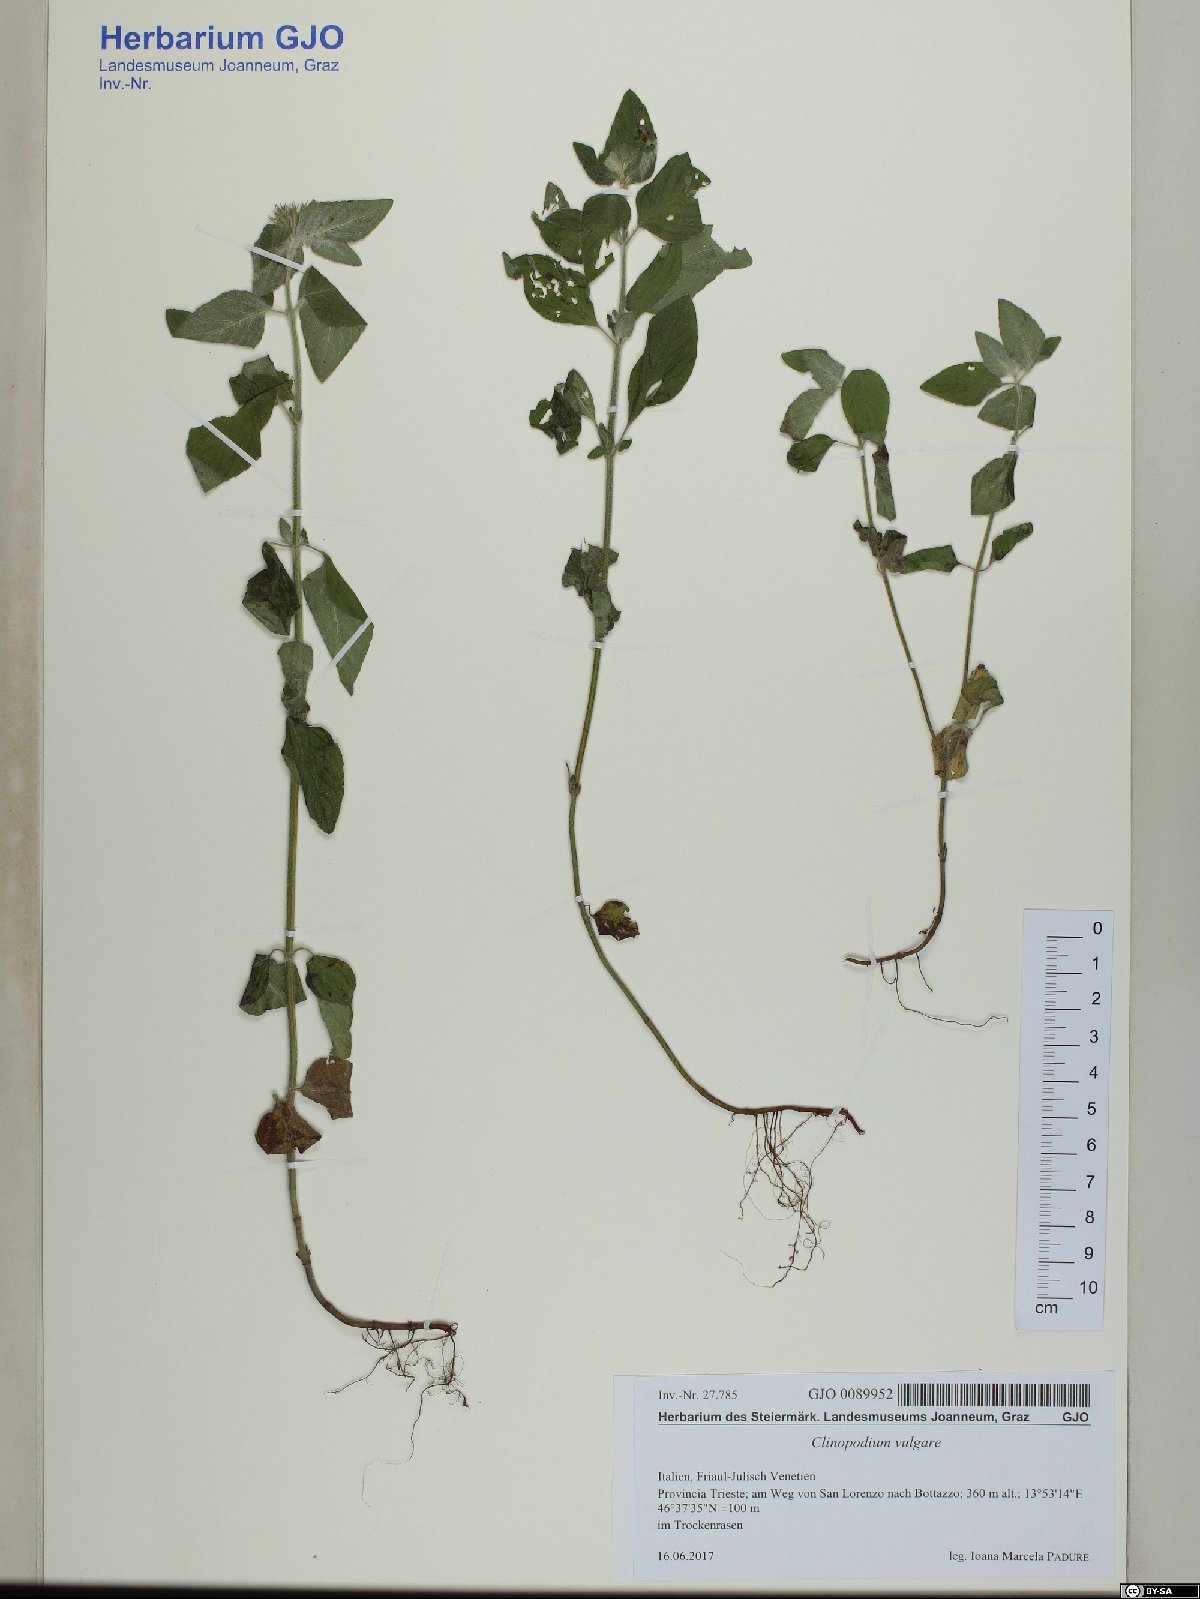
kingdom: Plantae
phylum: Tracheophyta
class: Magnoliopsida
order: Lamiales
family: Lamiaceae
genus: Clinopodium
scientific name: Clinopodium vulgare
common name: Wild basil
